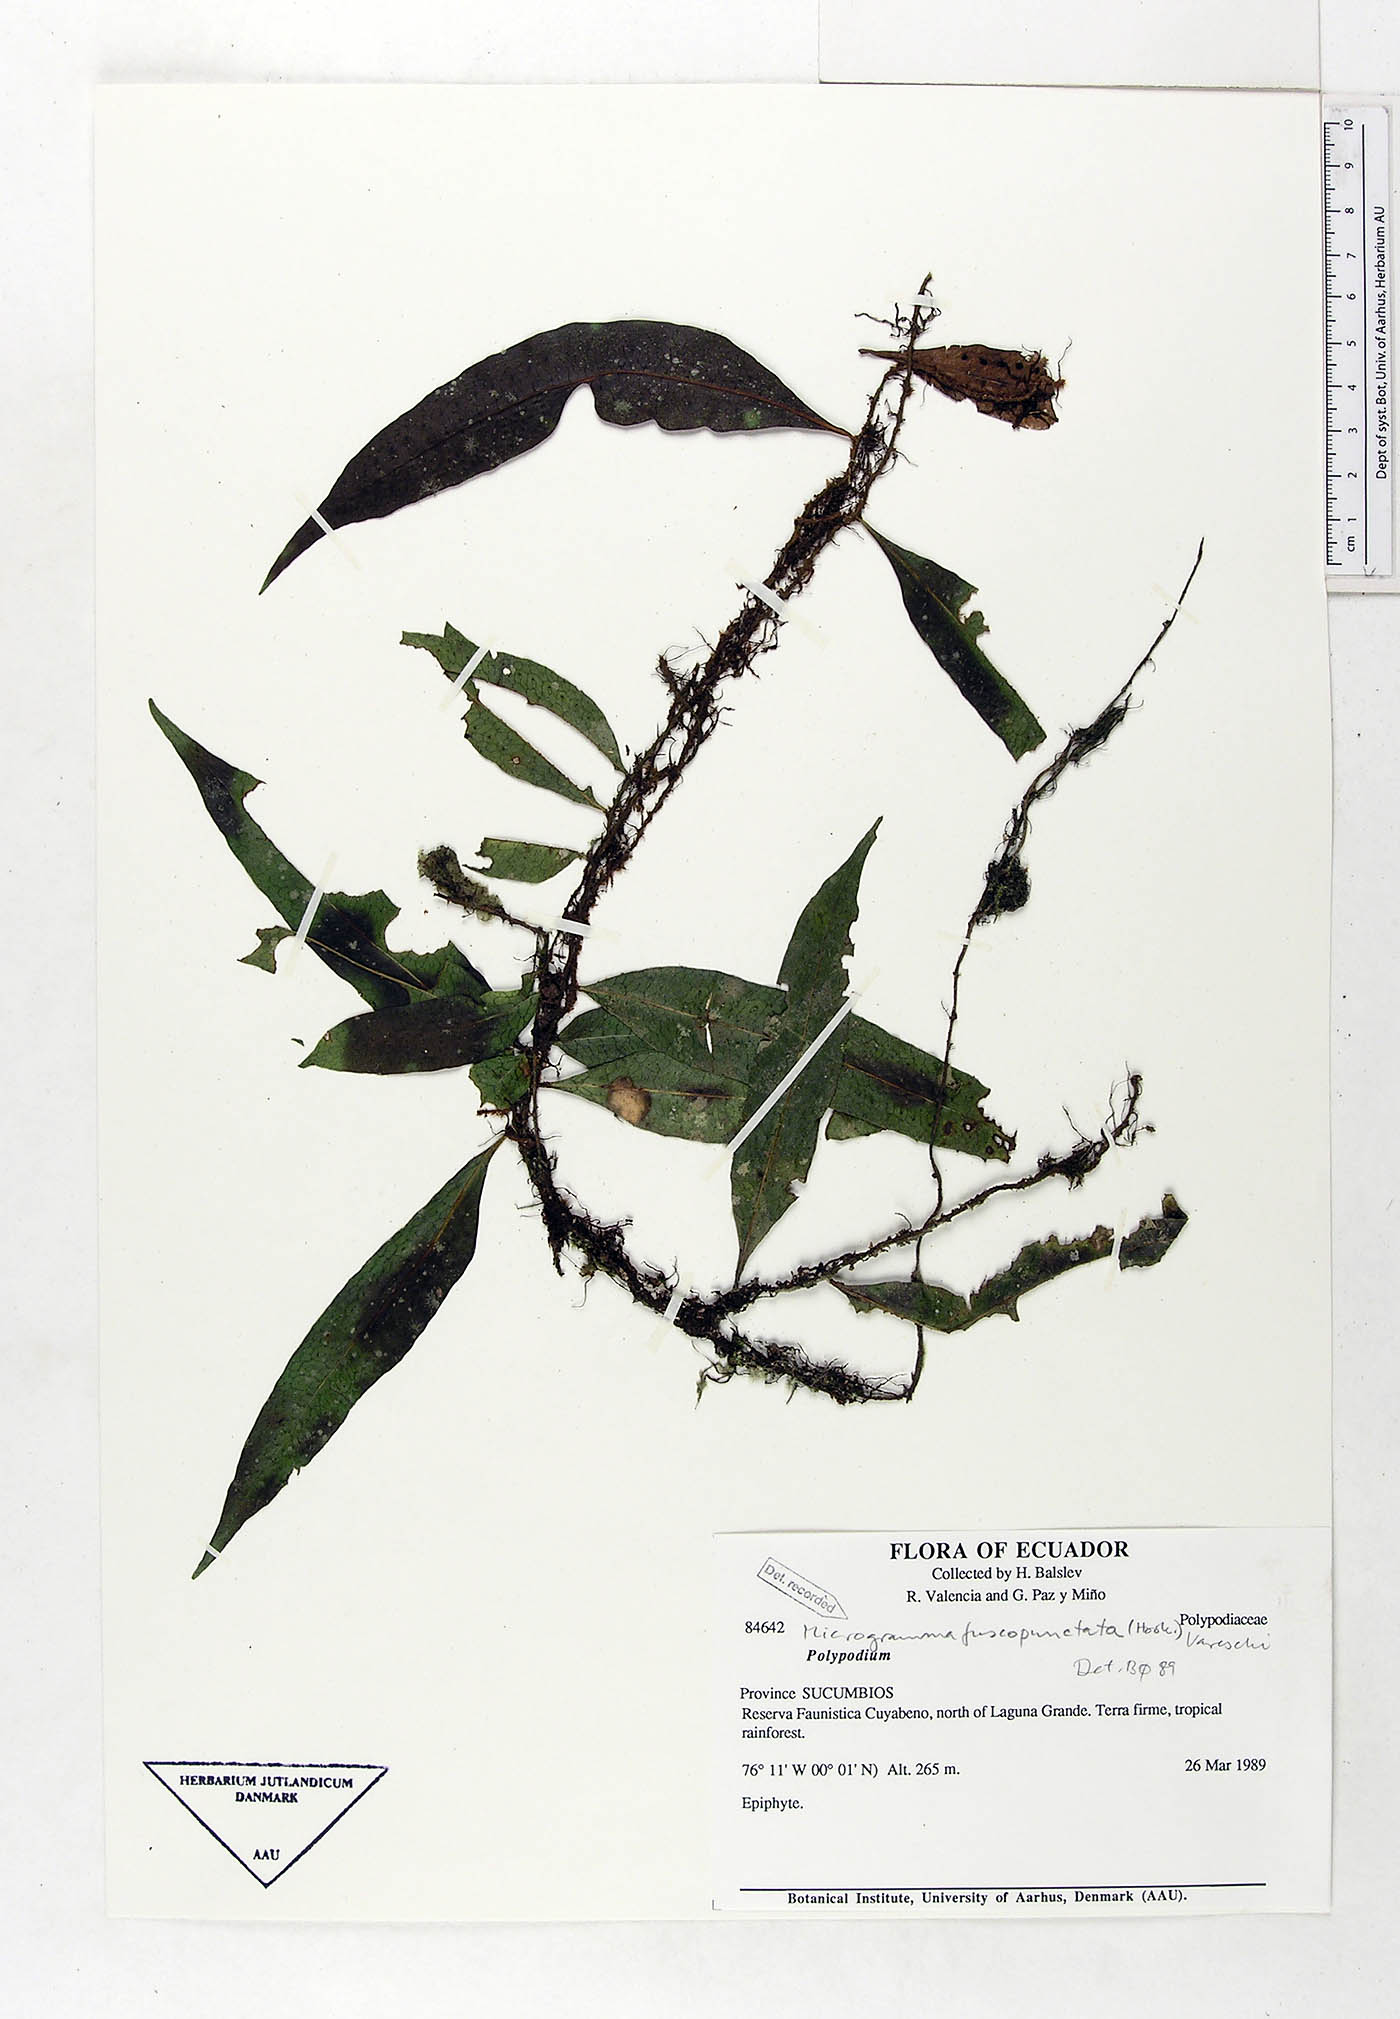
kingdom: Plantae
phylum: Tracheophyta
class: Polypodiopsida
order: Polypodiales
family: Polypodiaceae
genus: Microgramma
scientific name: Microgramma dictyophylla
